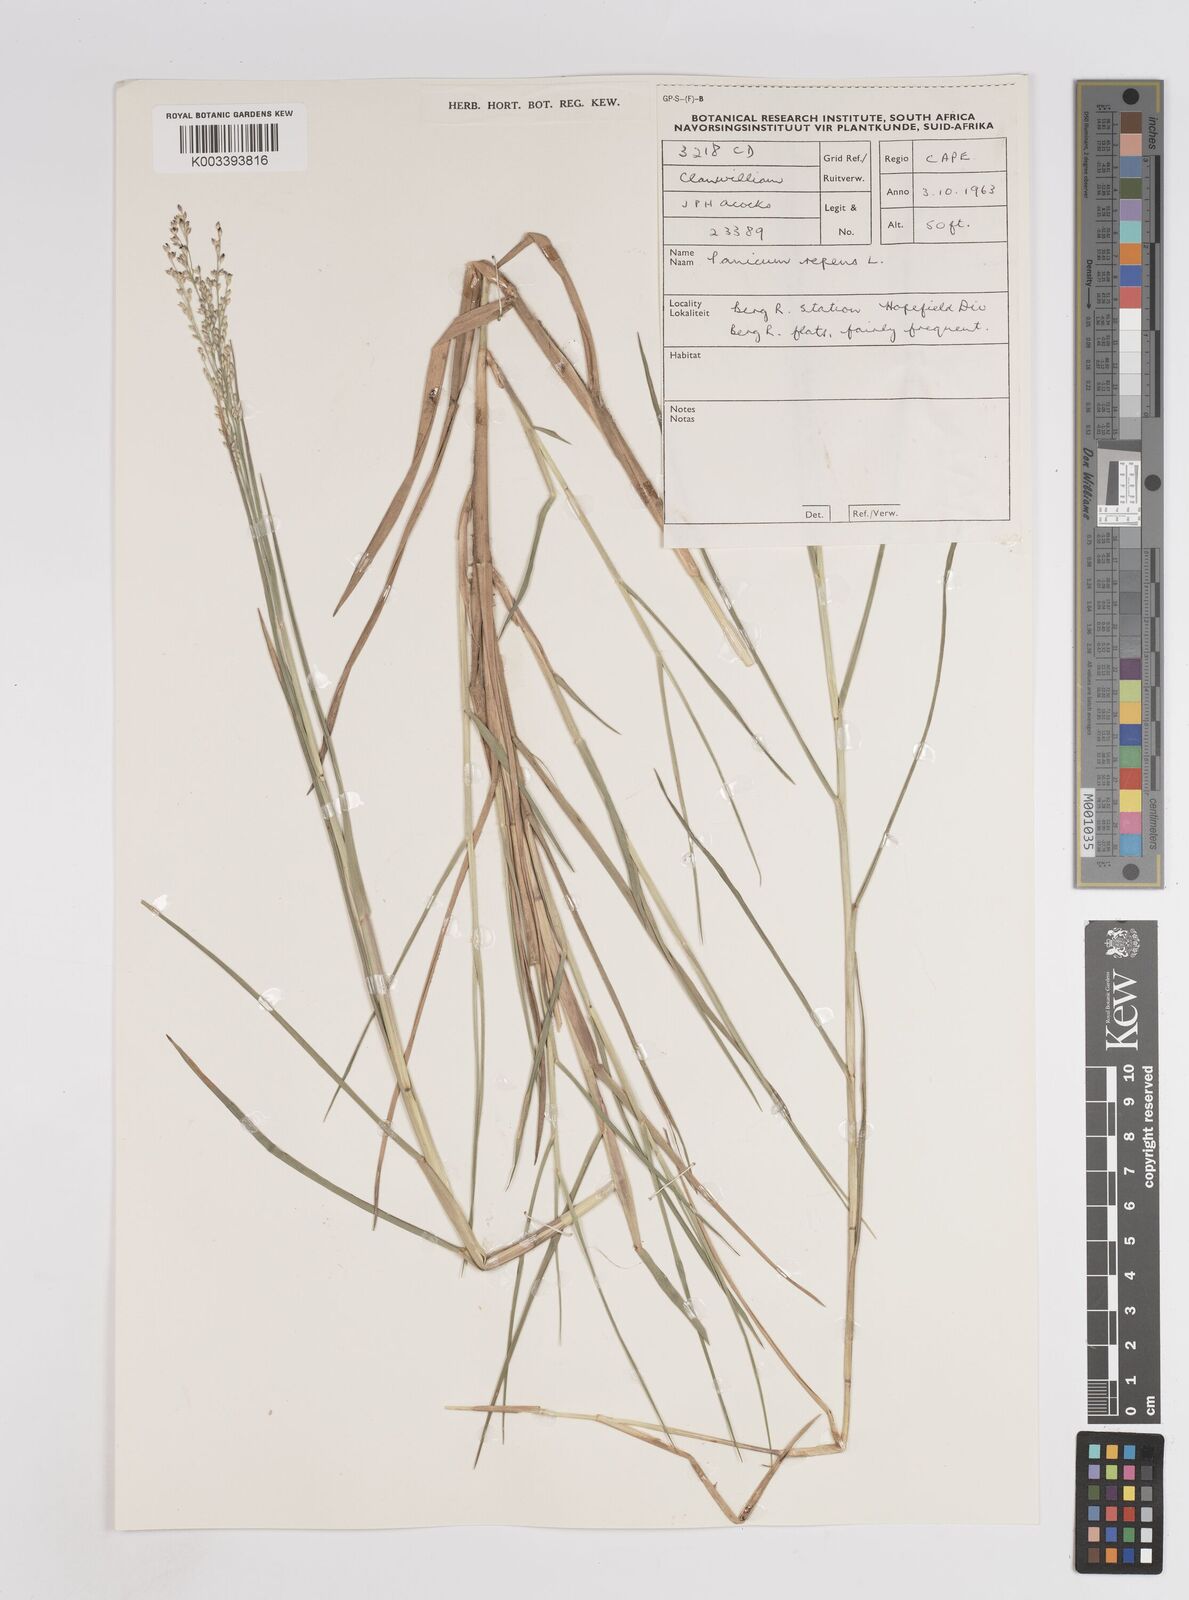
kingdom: Plantae
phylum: Tracheophyta
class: Liliopsida
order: Poales
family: Poaceae
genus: Panicum
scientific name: Panicum repens
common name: Torpedo grass
